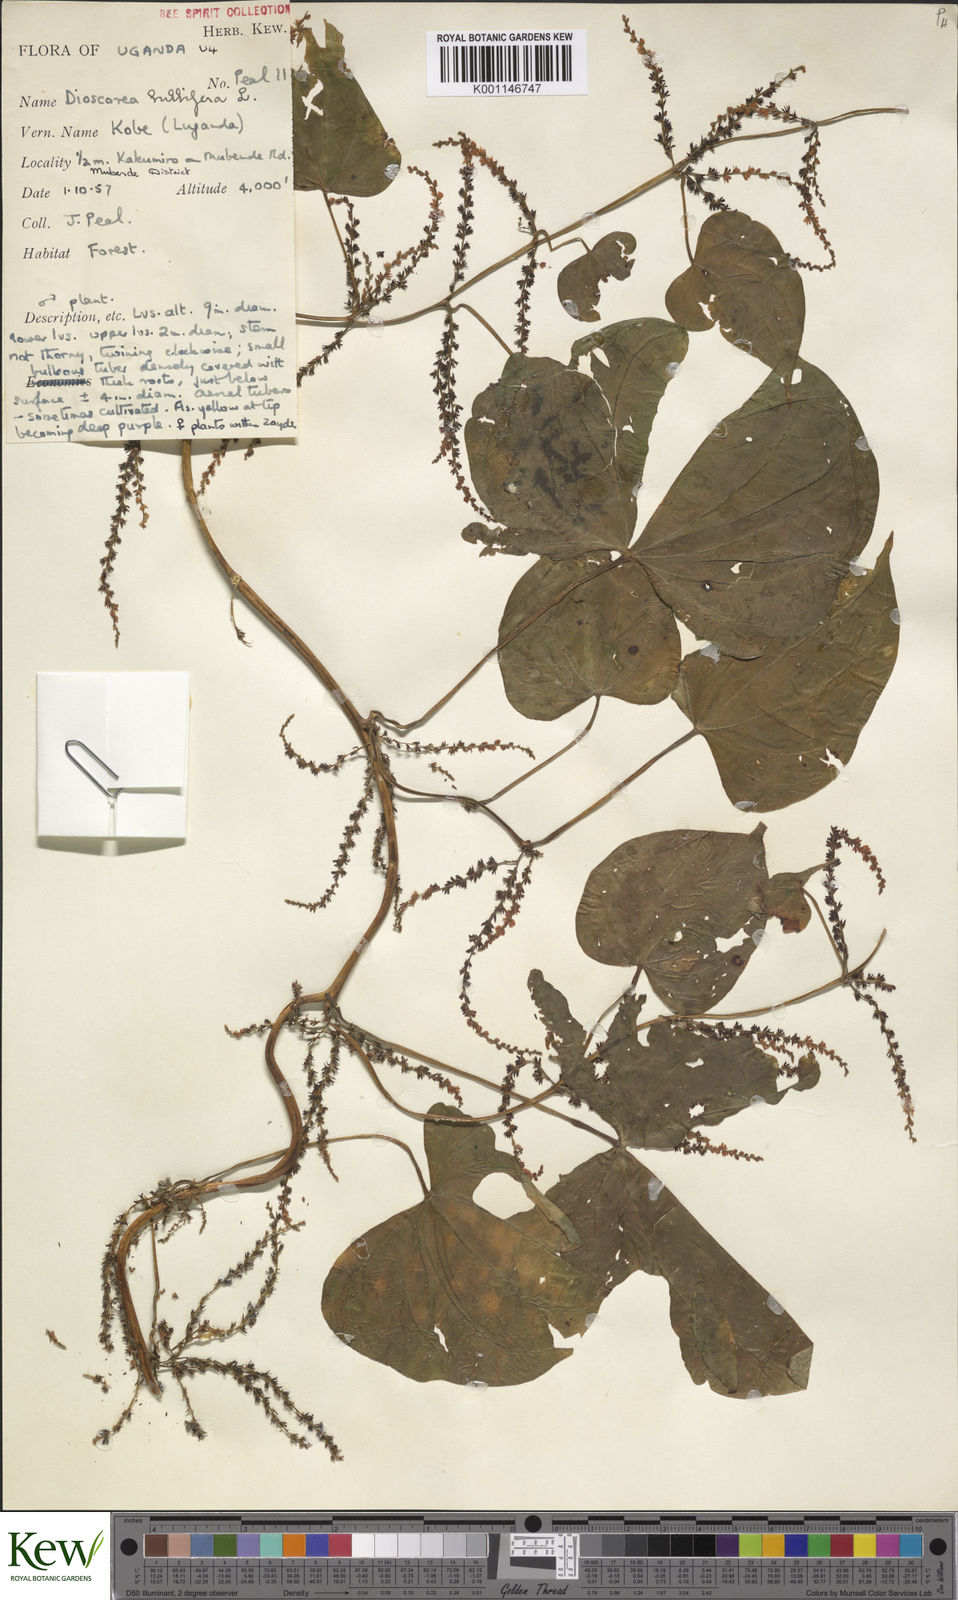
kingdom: Plantae
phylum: Tracheophyta
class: Liliopsida
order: Dioscoreales
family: Dioscoreaceae
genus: Dioscorea
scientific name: Dioscorea bulbifera
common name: Air yam
